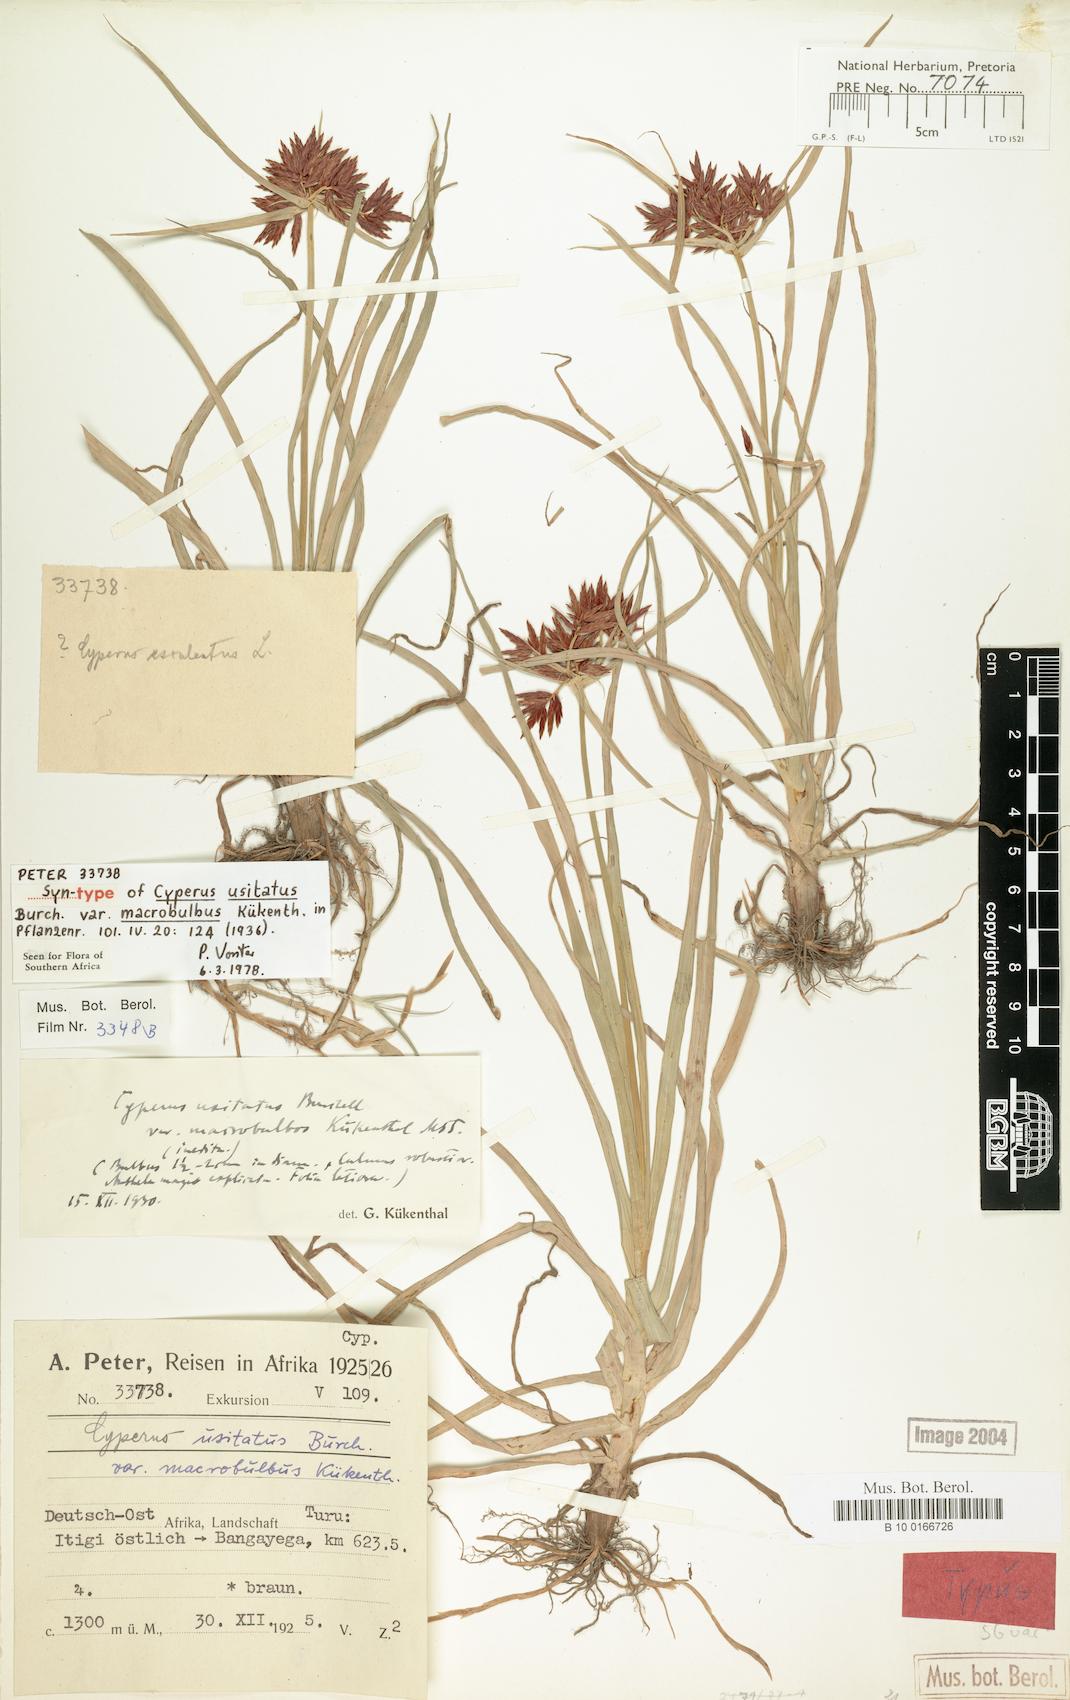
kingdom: Plantae
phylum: Tracheophyta
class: Liliopsida
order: Poales
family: Cyperaceae
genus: Cyperus
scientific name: Cyperus usitatus
